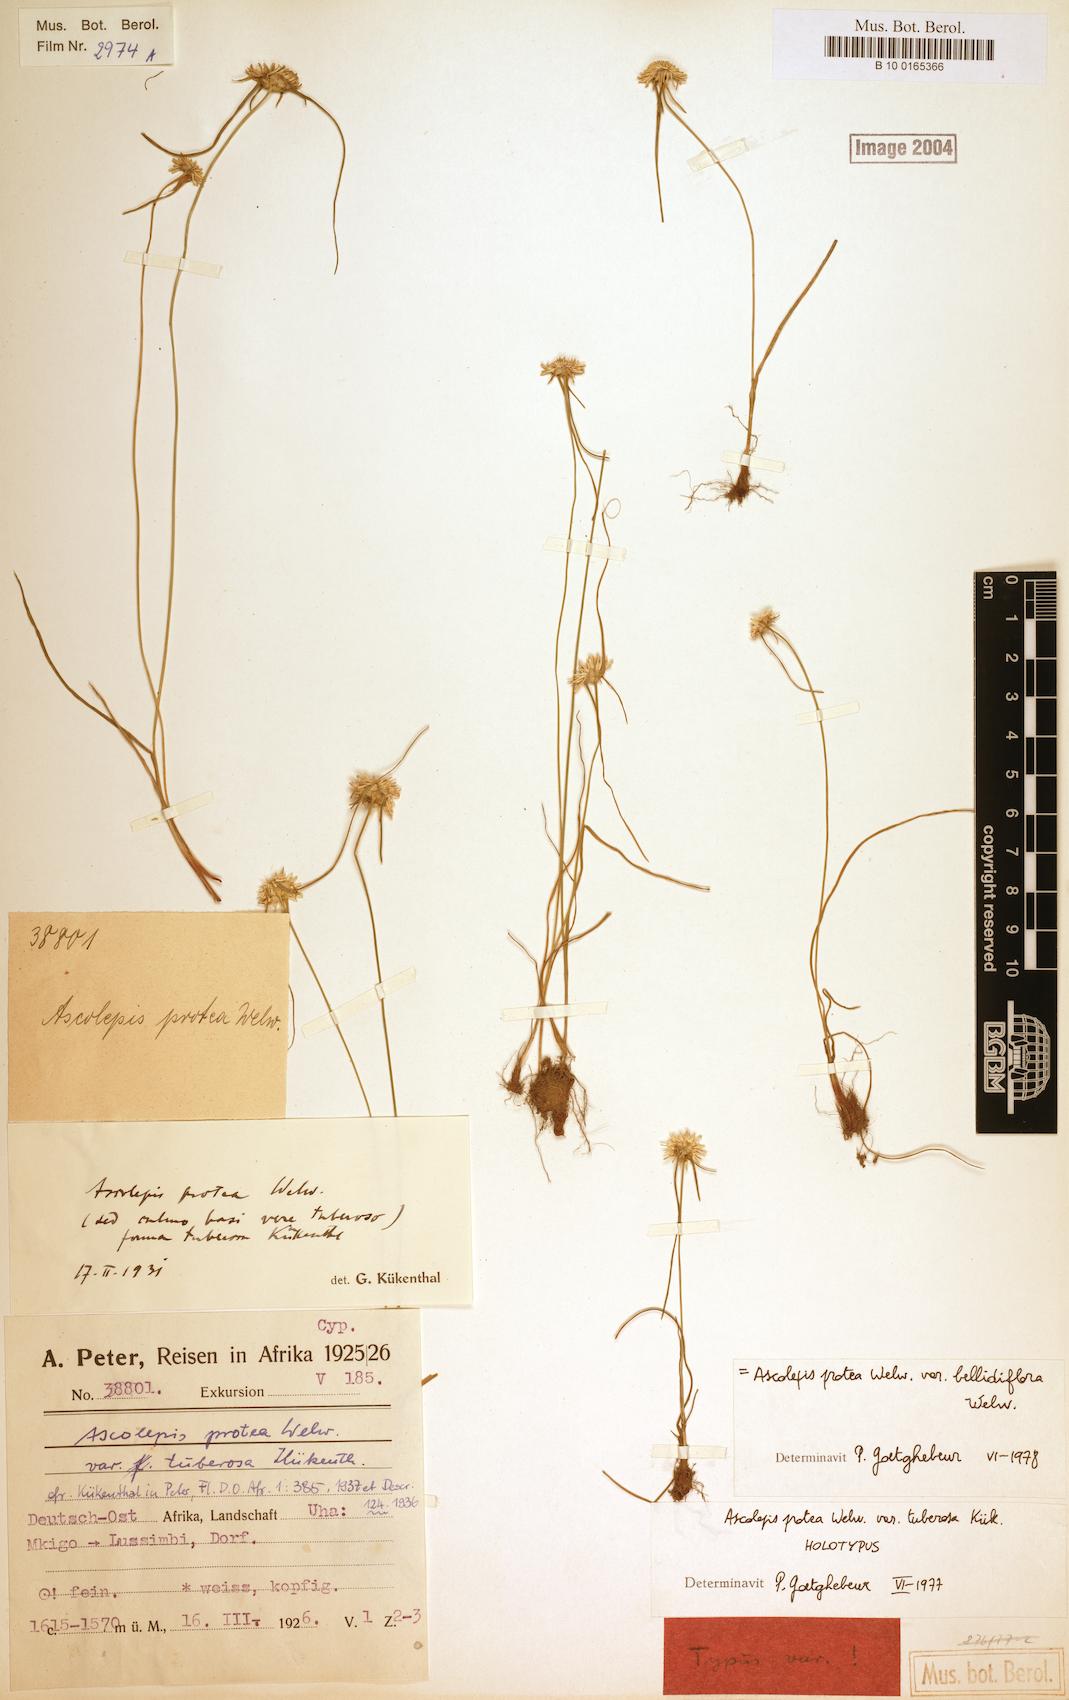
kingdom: Plantae
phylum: Tracheophyta
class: Liliopsida
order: Poales
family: Cyperaceae
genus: Cyperus
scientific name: Cyperus proteus
